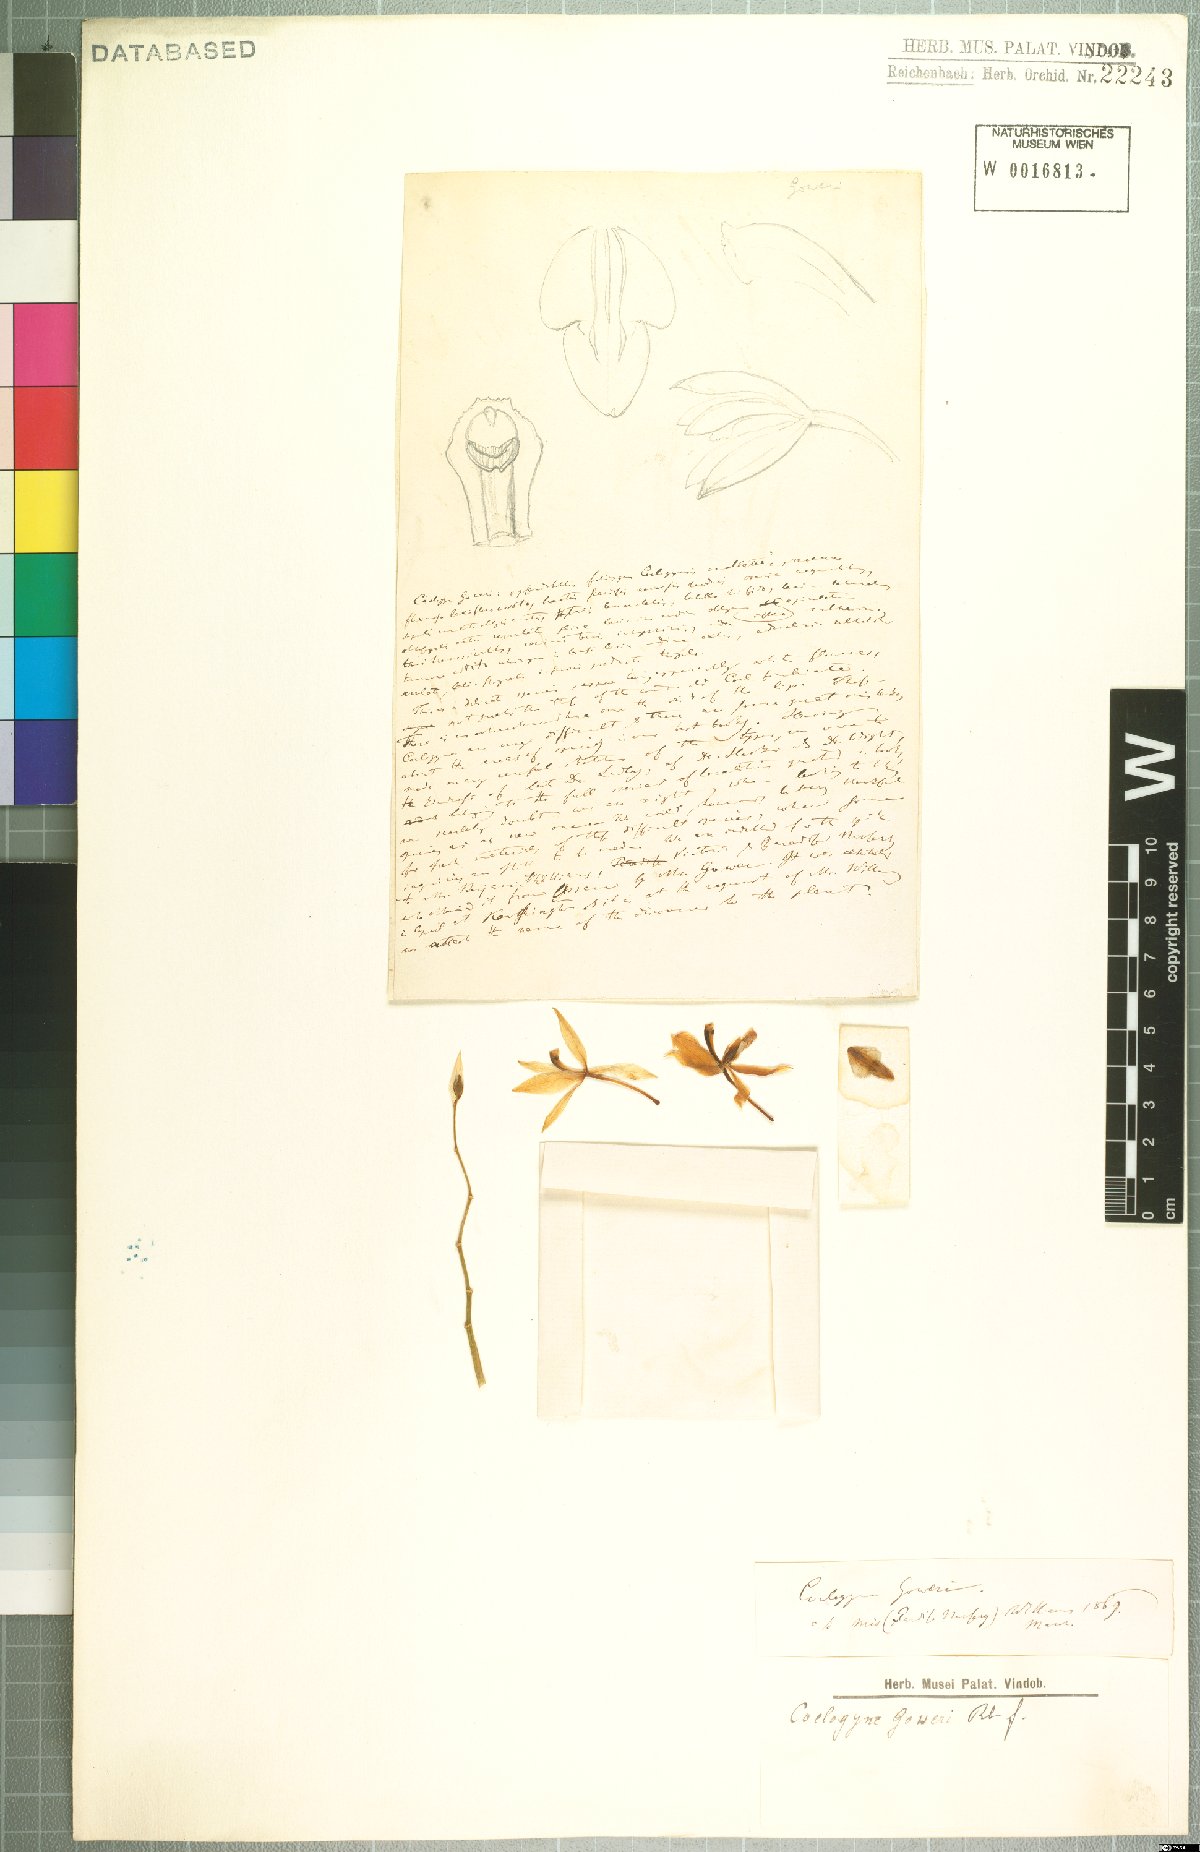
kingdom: Plantae
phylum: Tracheophyta
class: Liliopsida
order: Asparagales
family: Orchidaceae
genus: Coelogyne
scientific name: Coelogyne punctulata
